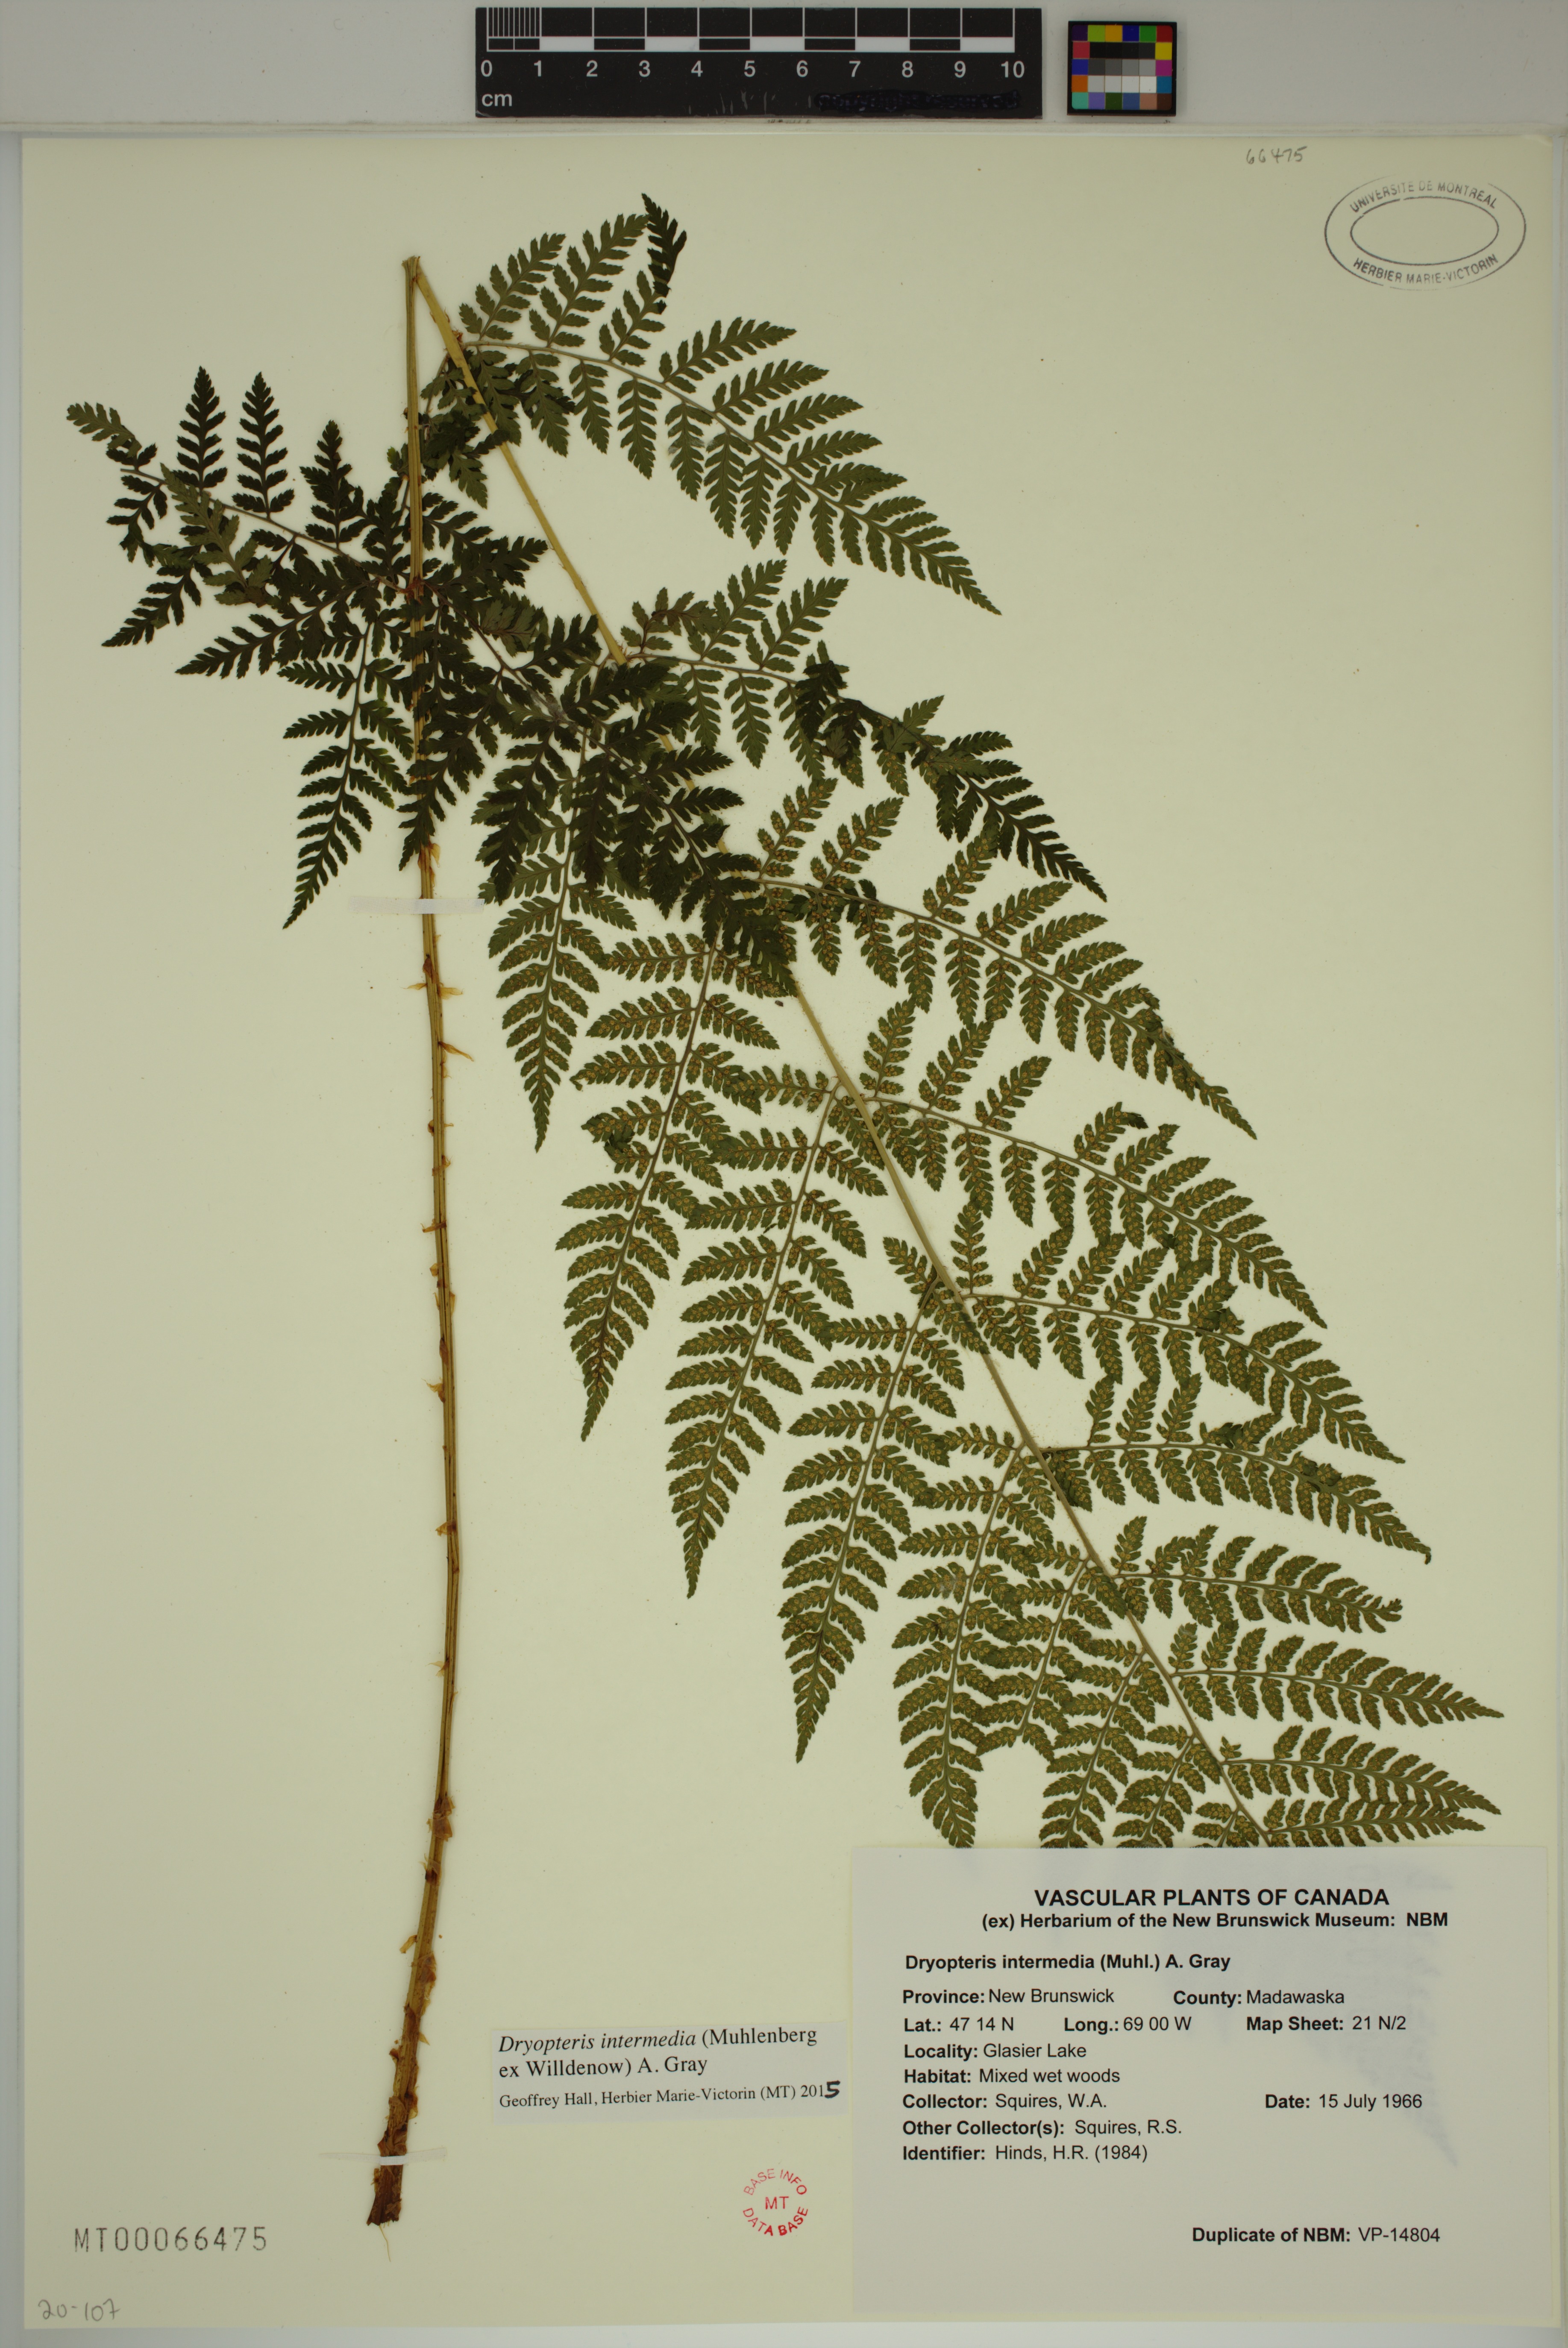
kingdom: Plantae
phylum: Tracheophyta
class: Polypodiopsida
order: Polypodiales
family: Dryopteridaceae
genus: Dryopteris
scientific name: Dryopteris intermedia
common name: Evergreen wood fern
